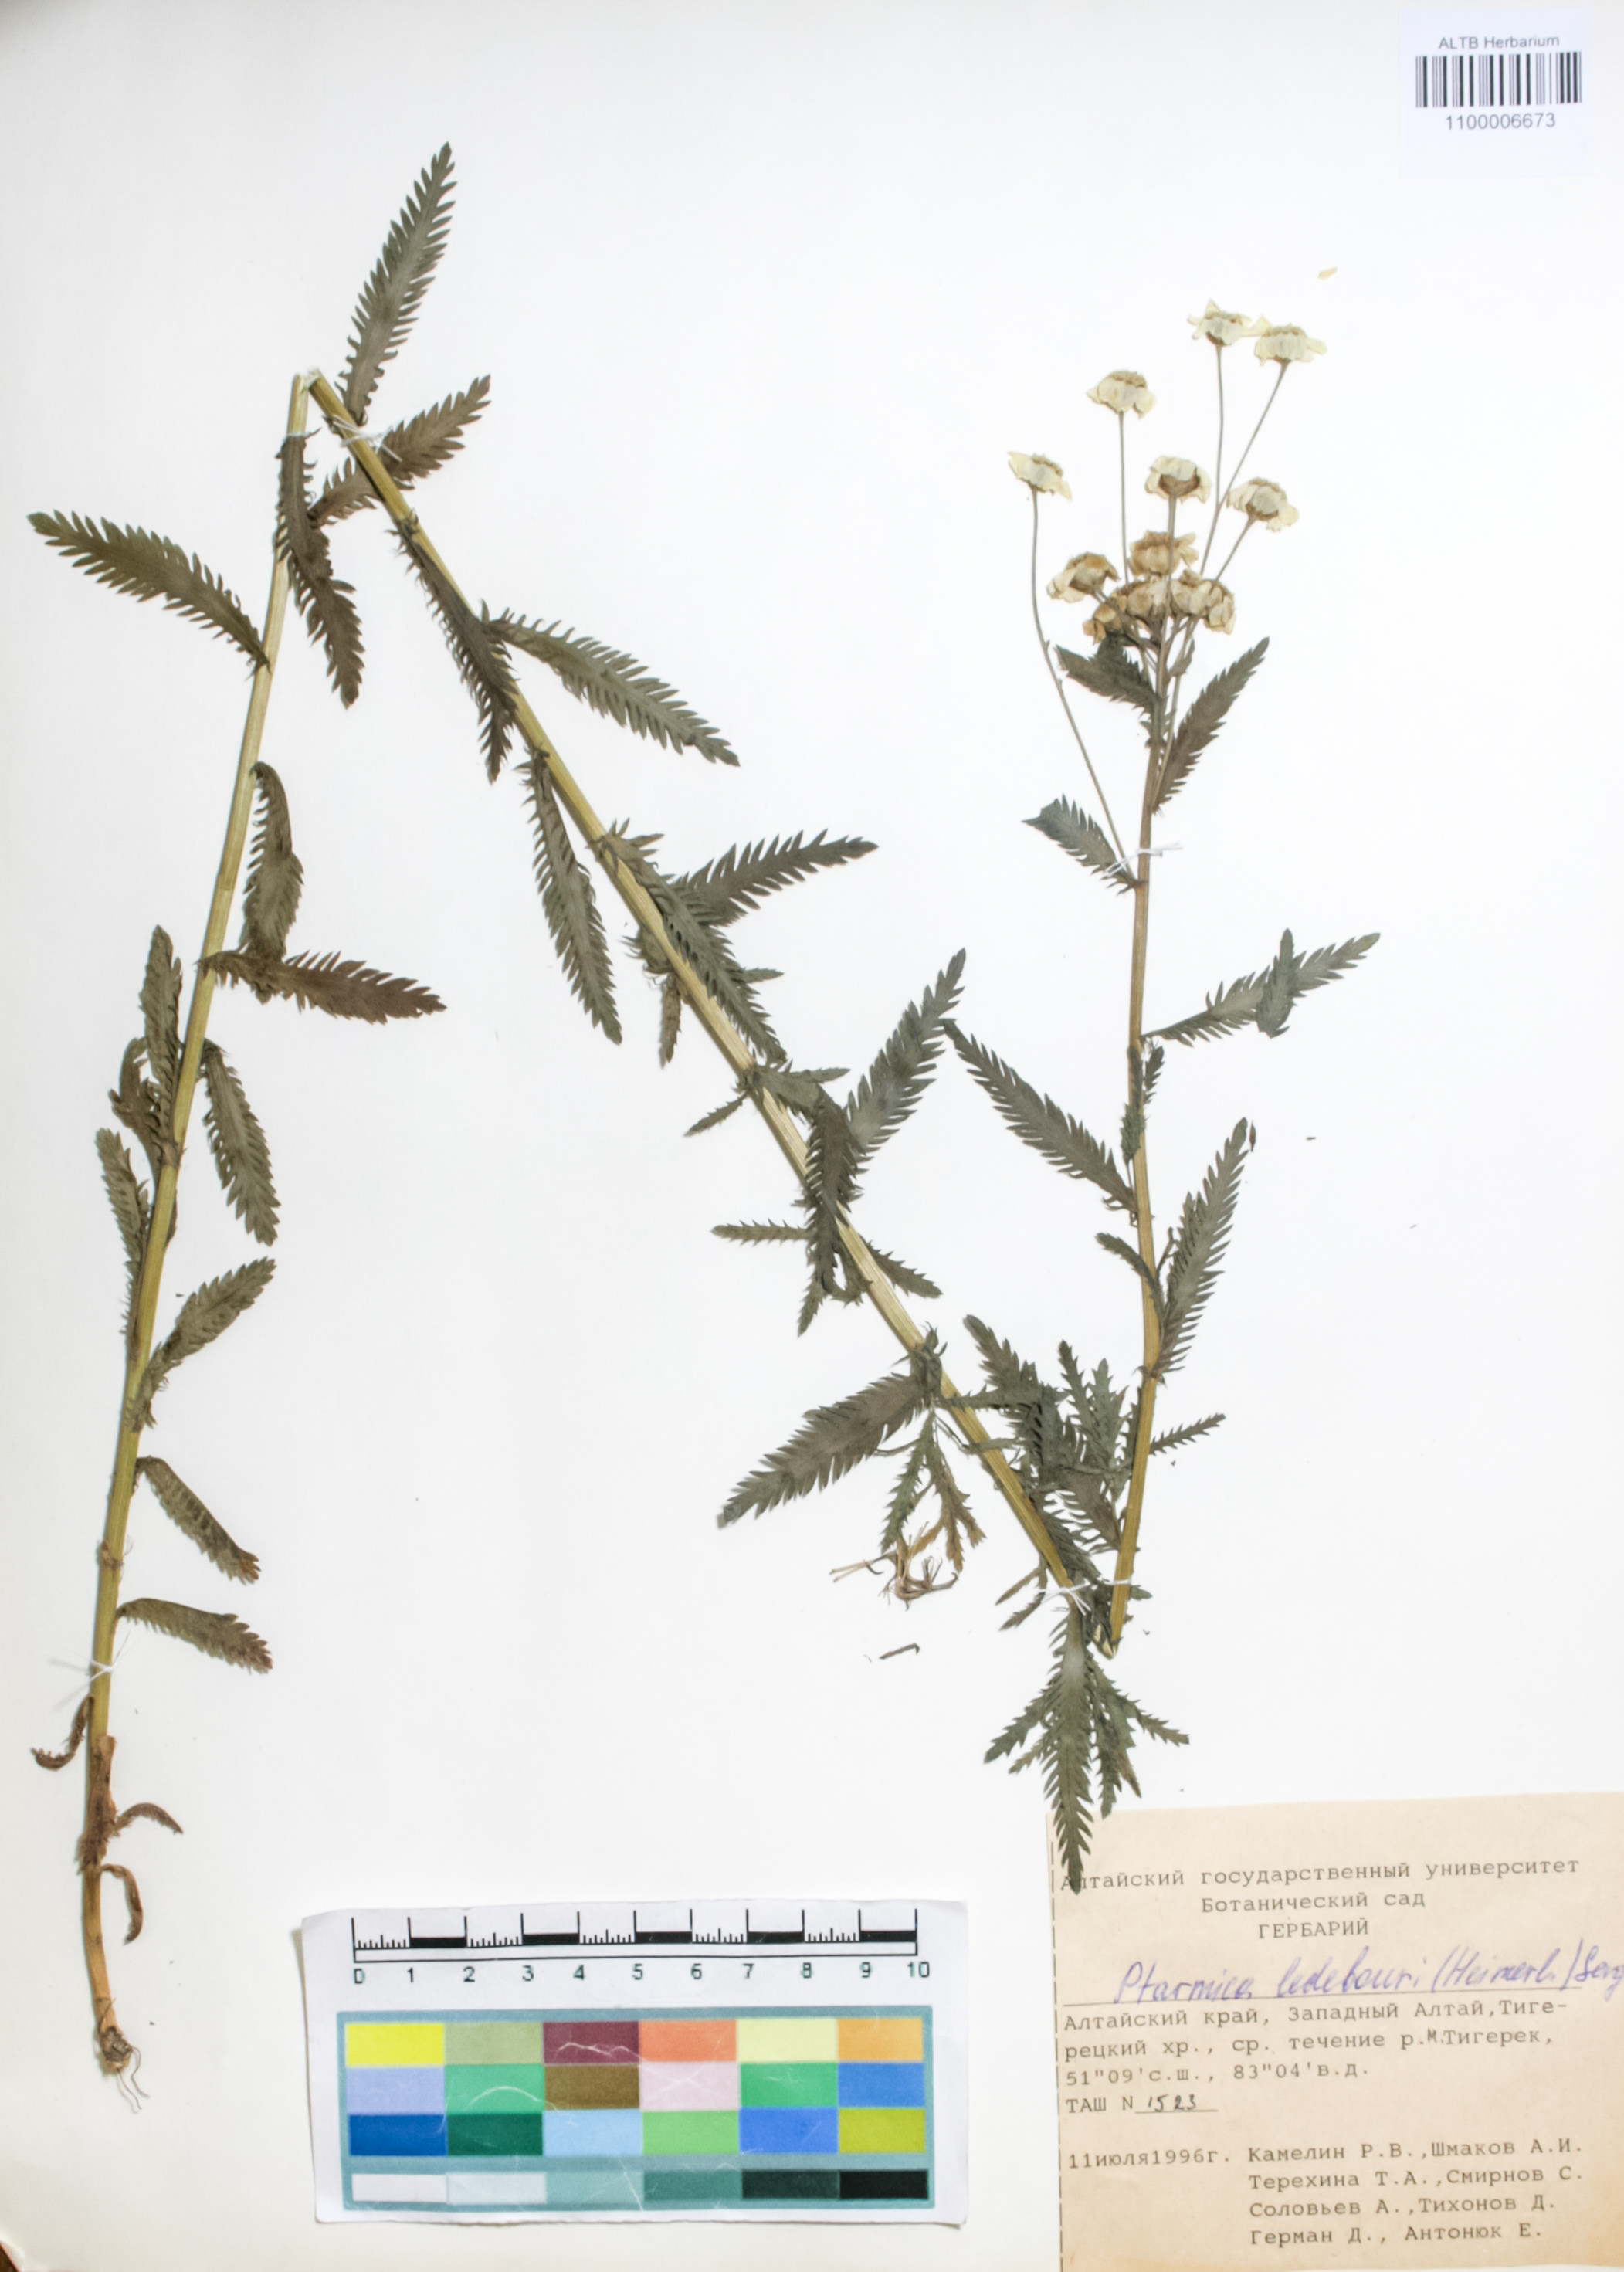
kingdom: Plantae
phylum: Tracheophyta
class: Magnoliopsida
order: Asterales
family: Asteraceae
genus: Achillea
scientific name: Achillea ledebourii
